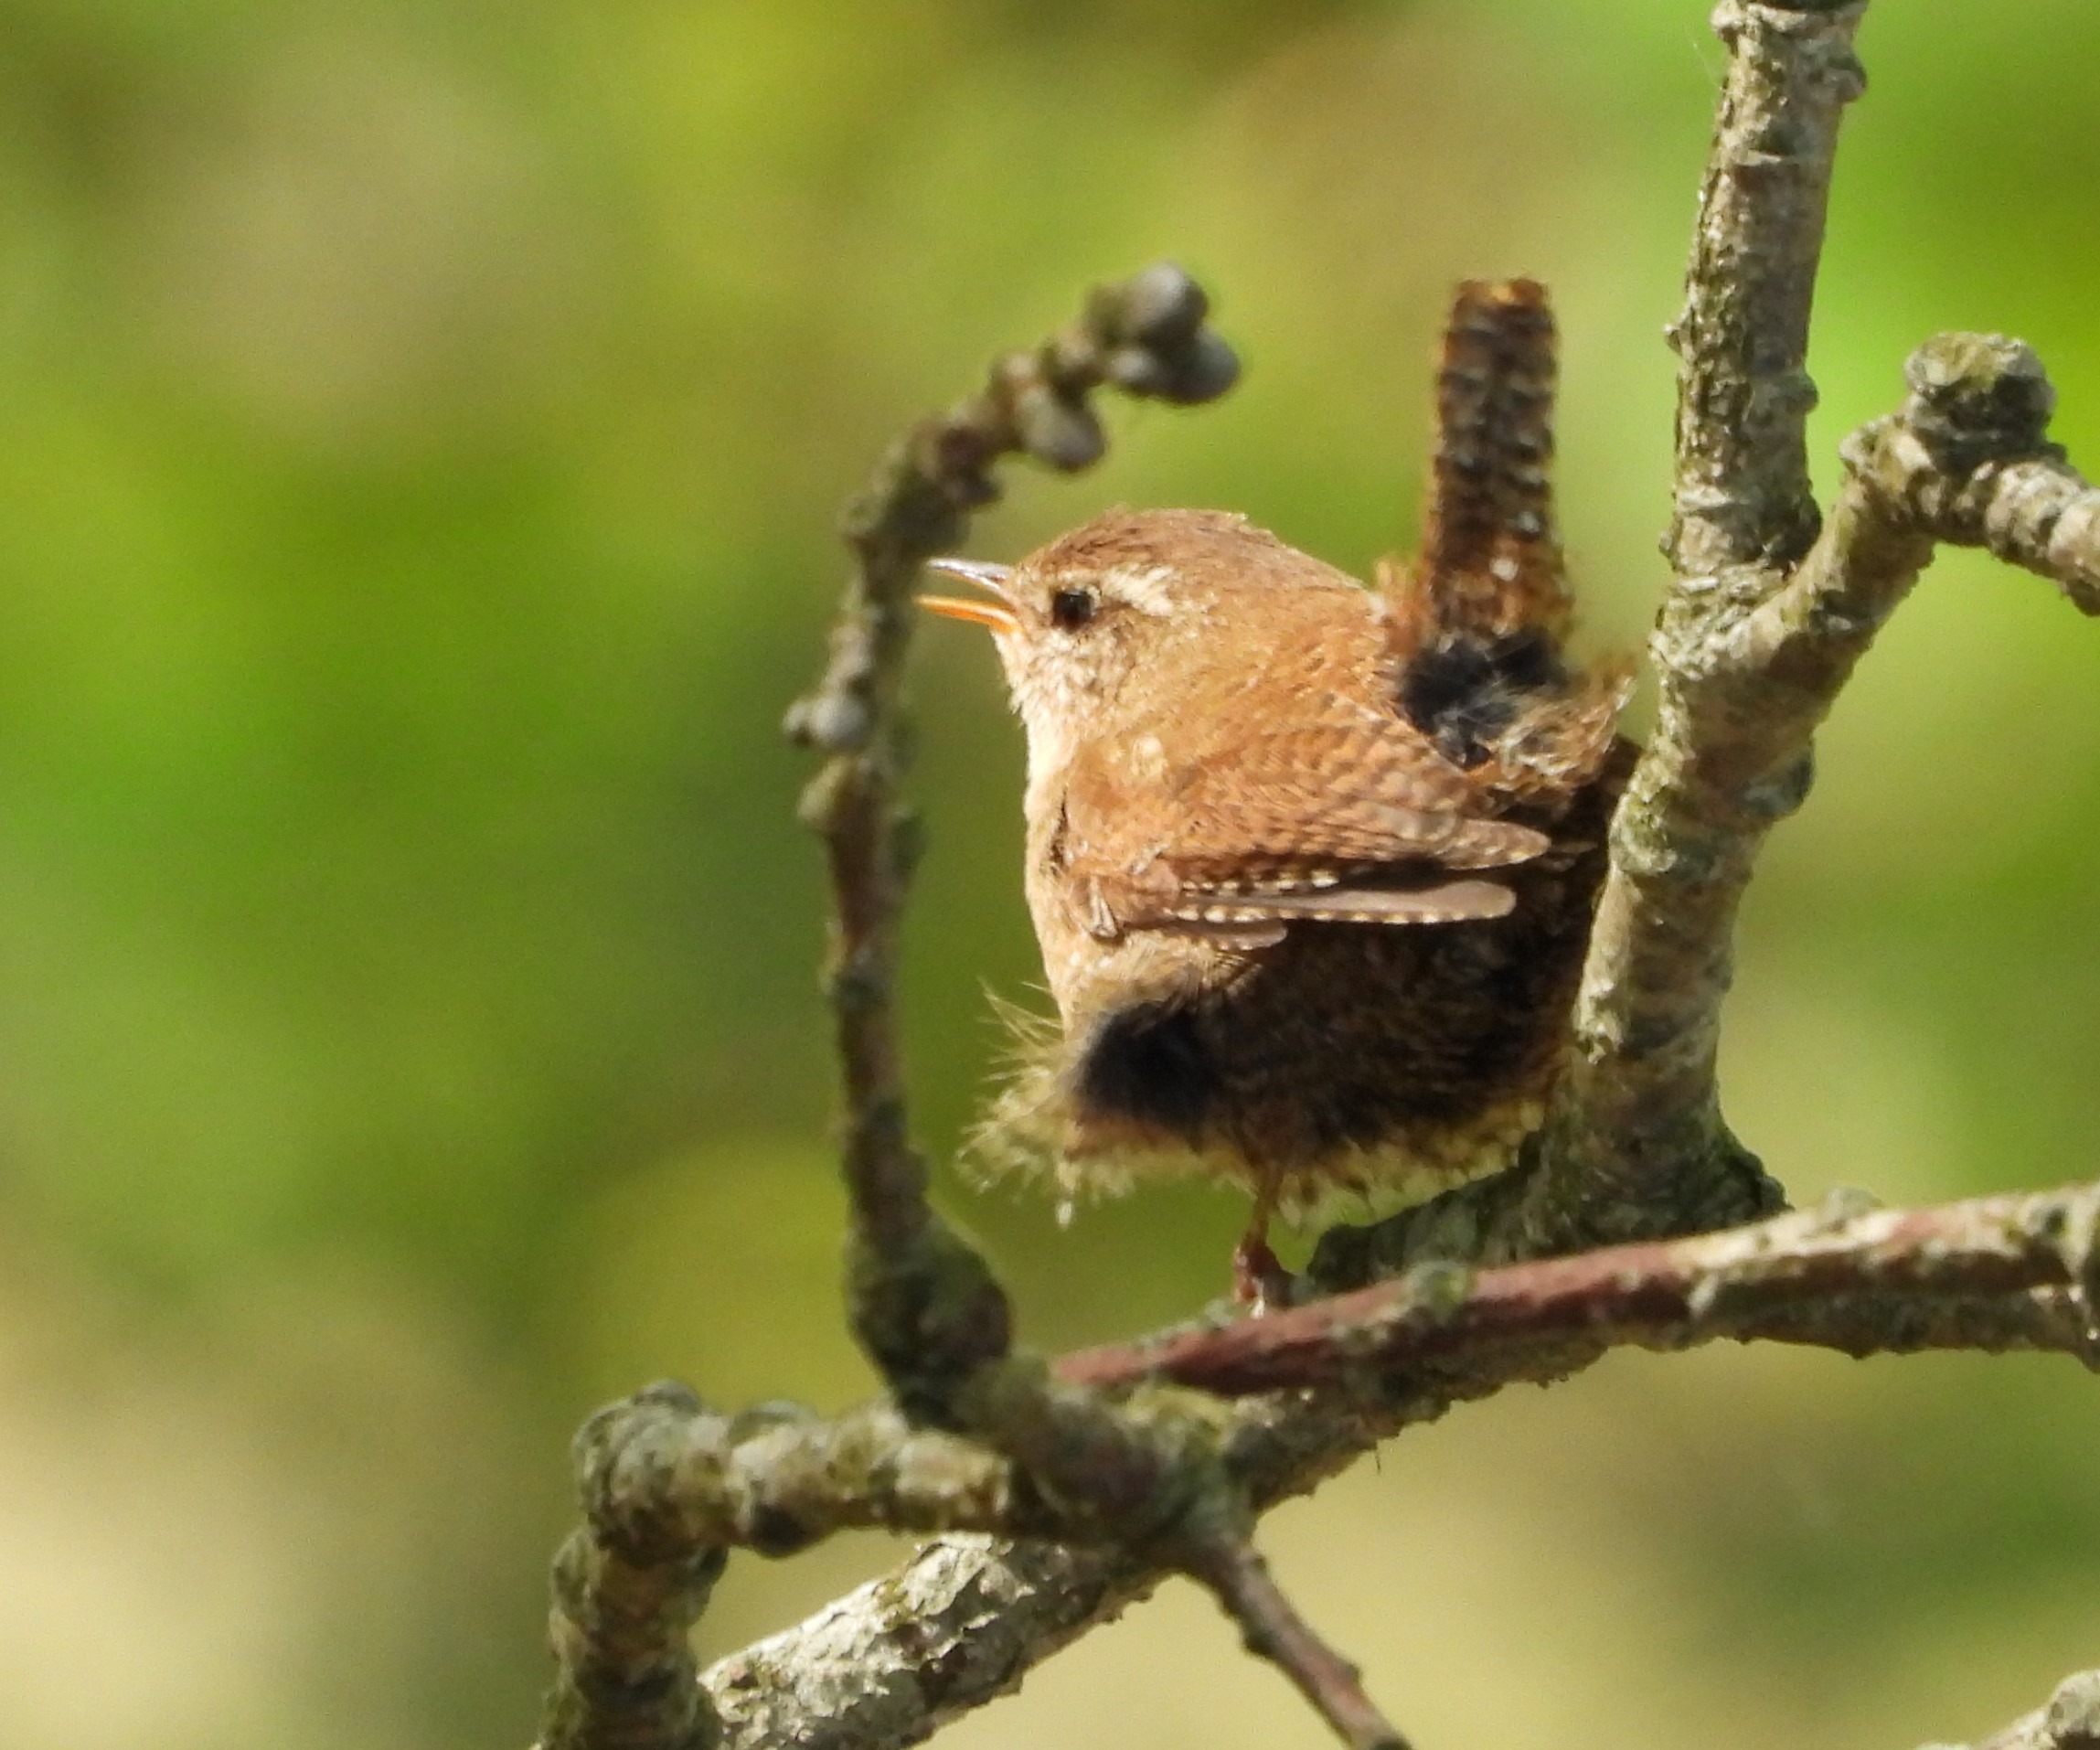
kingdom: Animalia
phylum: Chordata
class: Aves
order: Passeriformes
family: Troglodytidae
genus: Troglodytes
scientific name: Troglodytes troglodytes
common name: Gærdesmutte
